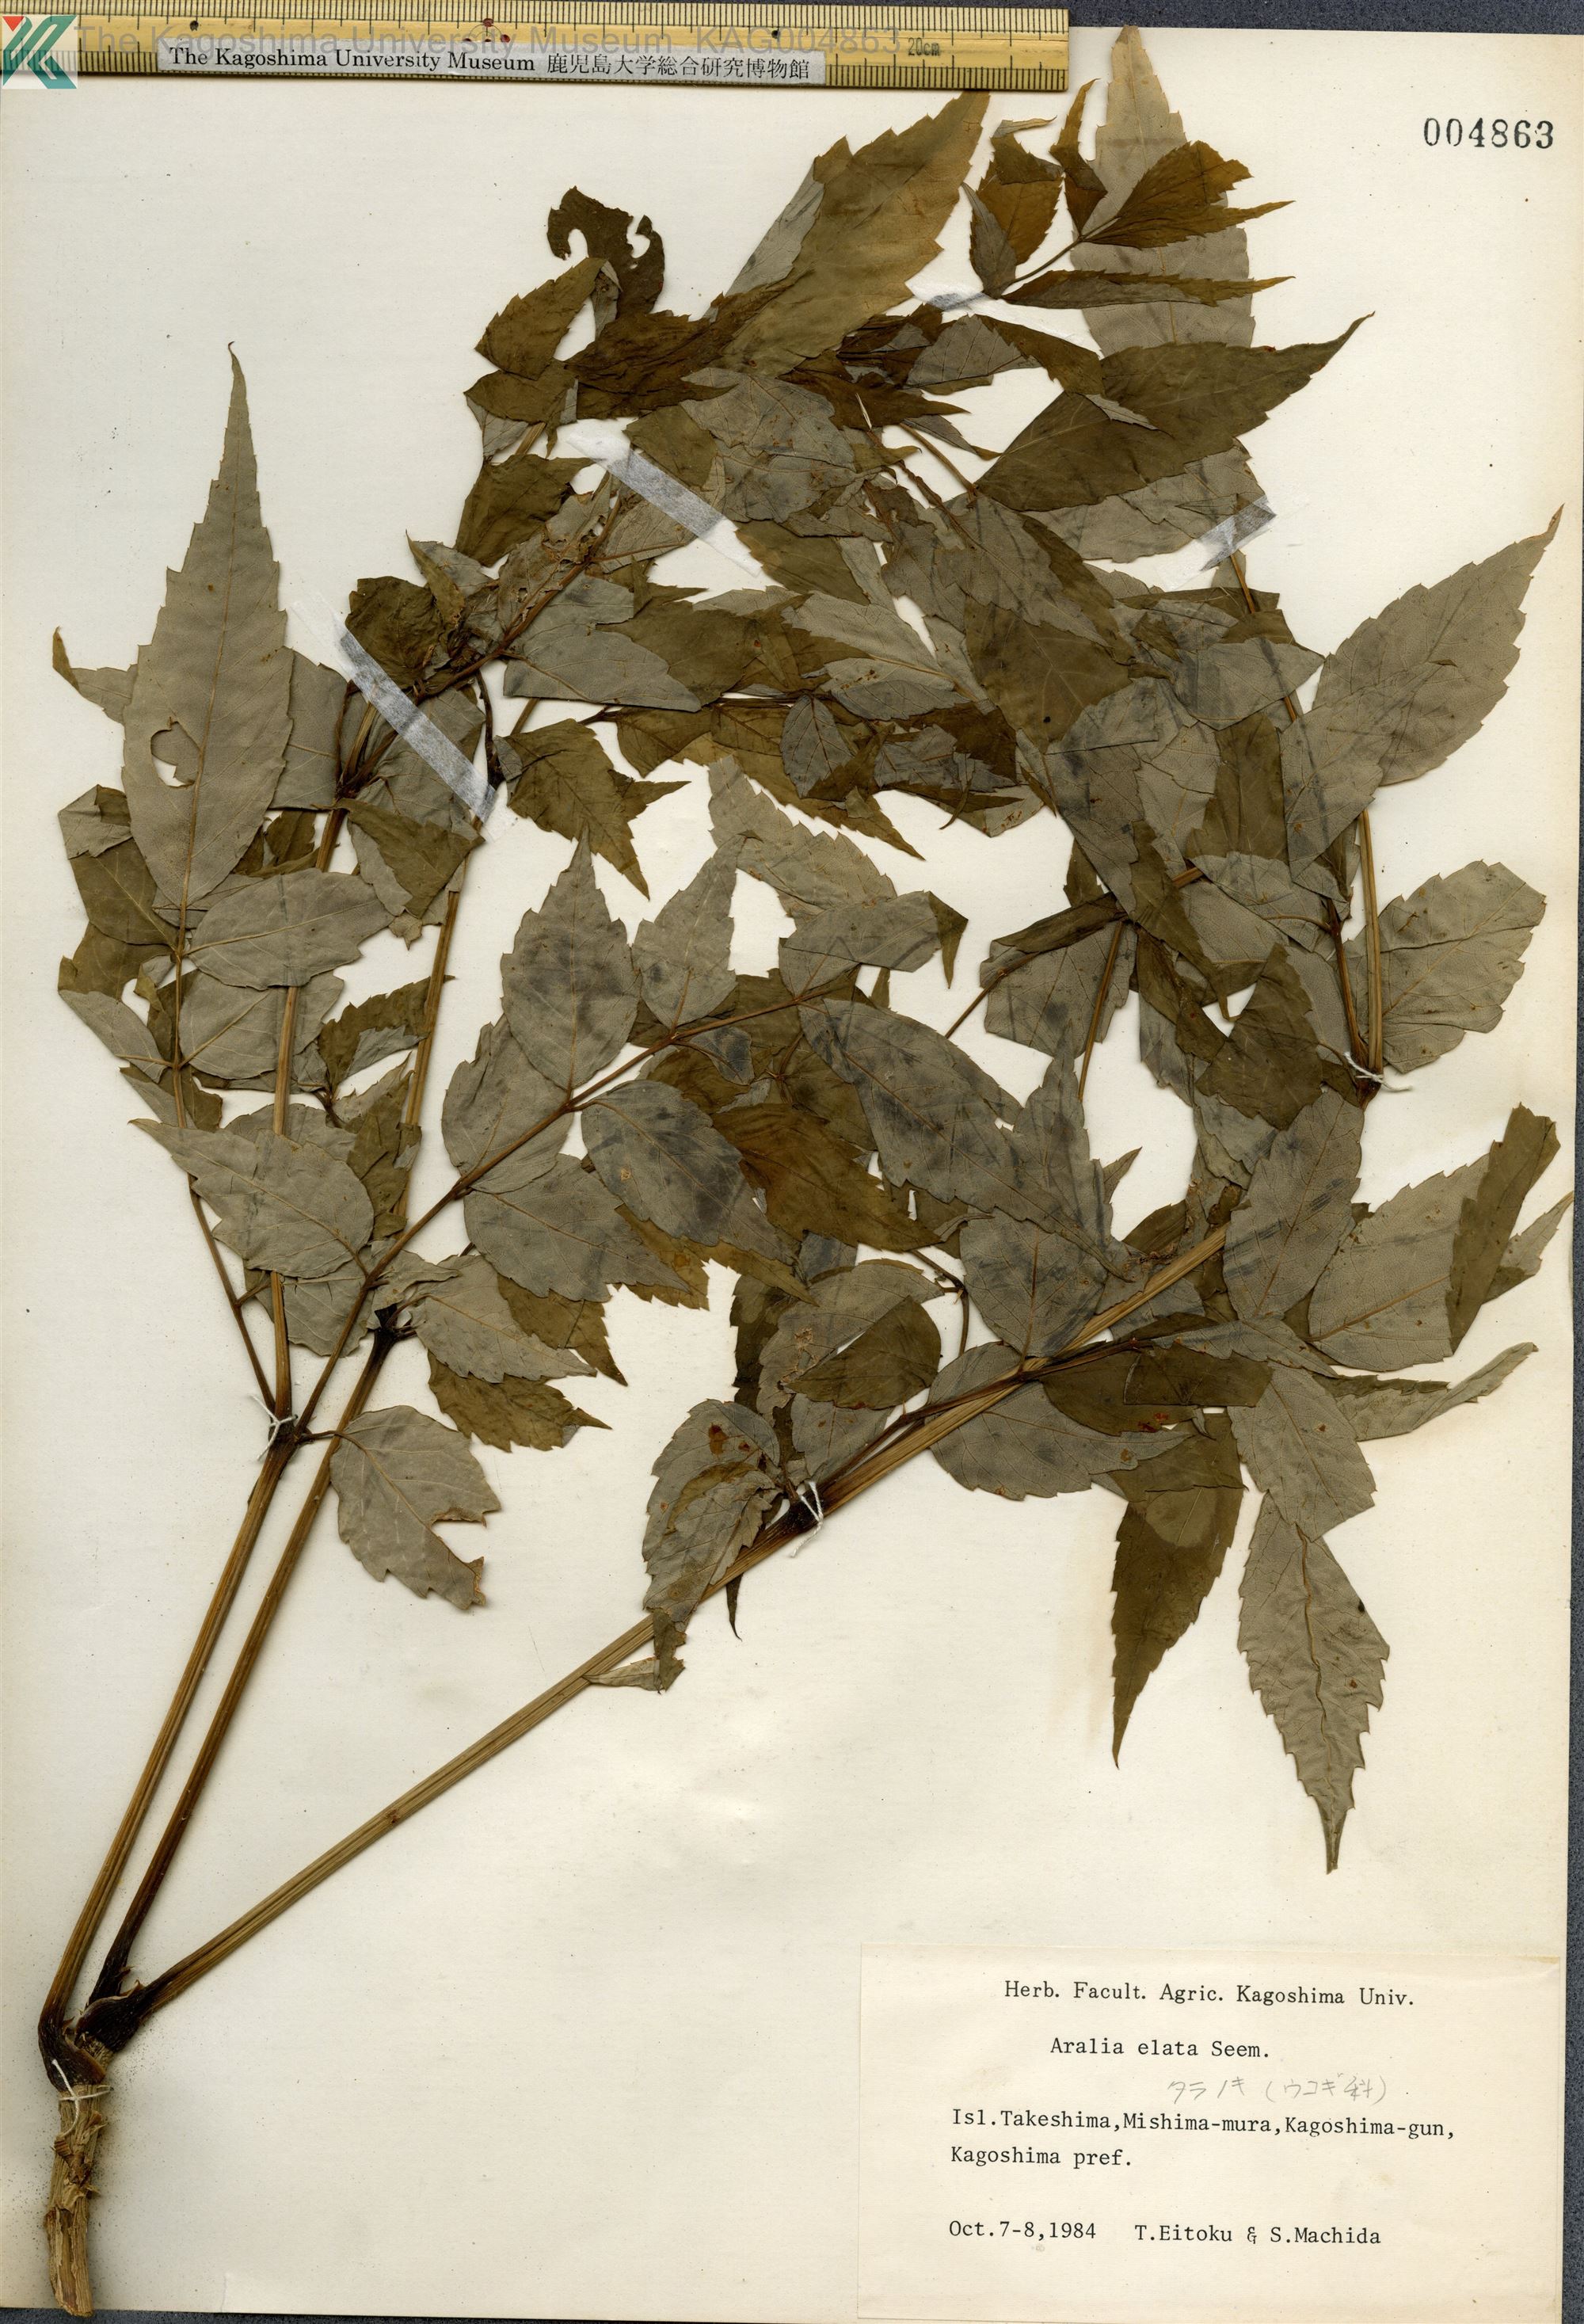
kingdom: Plantae
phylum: Tracheophyta
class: Magnoliopsida
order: Apiales
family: Araliaceae
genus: Aralia
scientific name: Aralia elata
